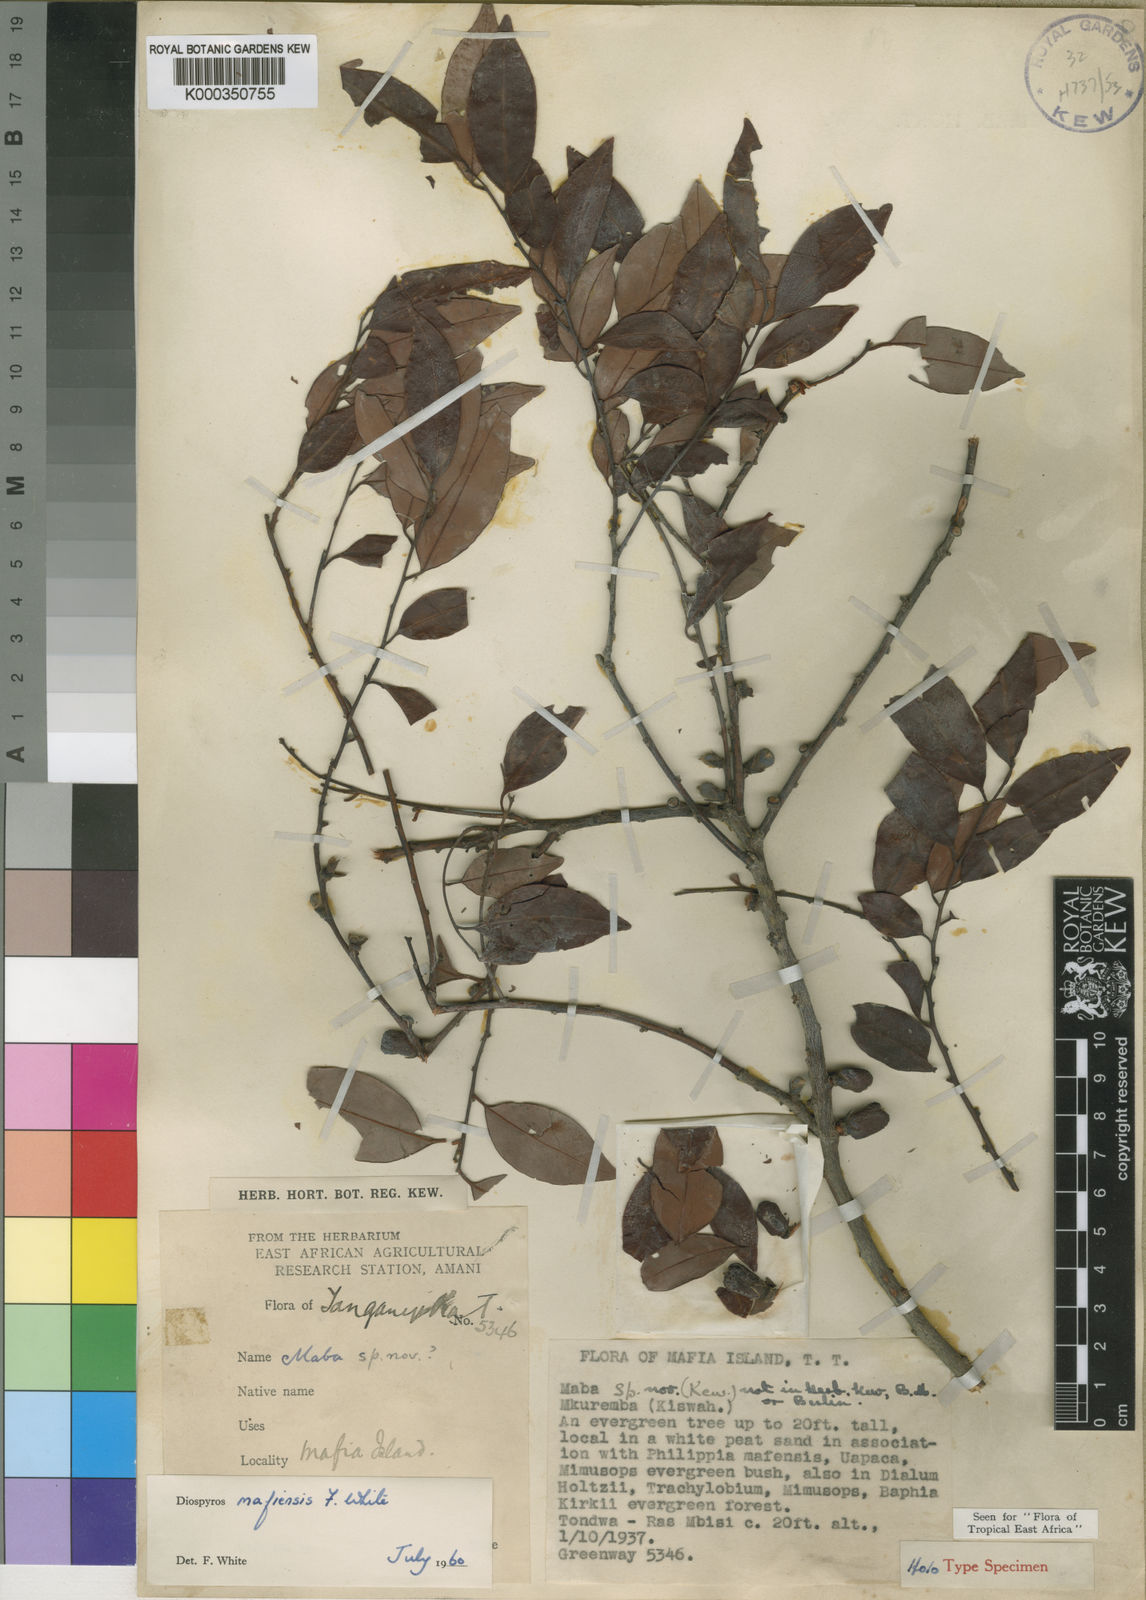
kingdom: Plantae
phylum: Tracheophyta
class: Magnoliopsida
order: Ericales
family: Ebenaceae
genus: Diospyros
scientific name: Diospyros mafiensis
